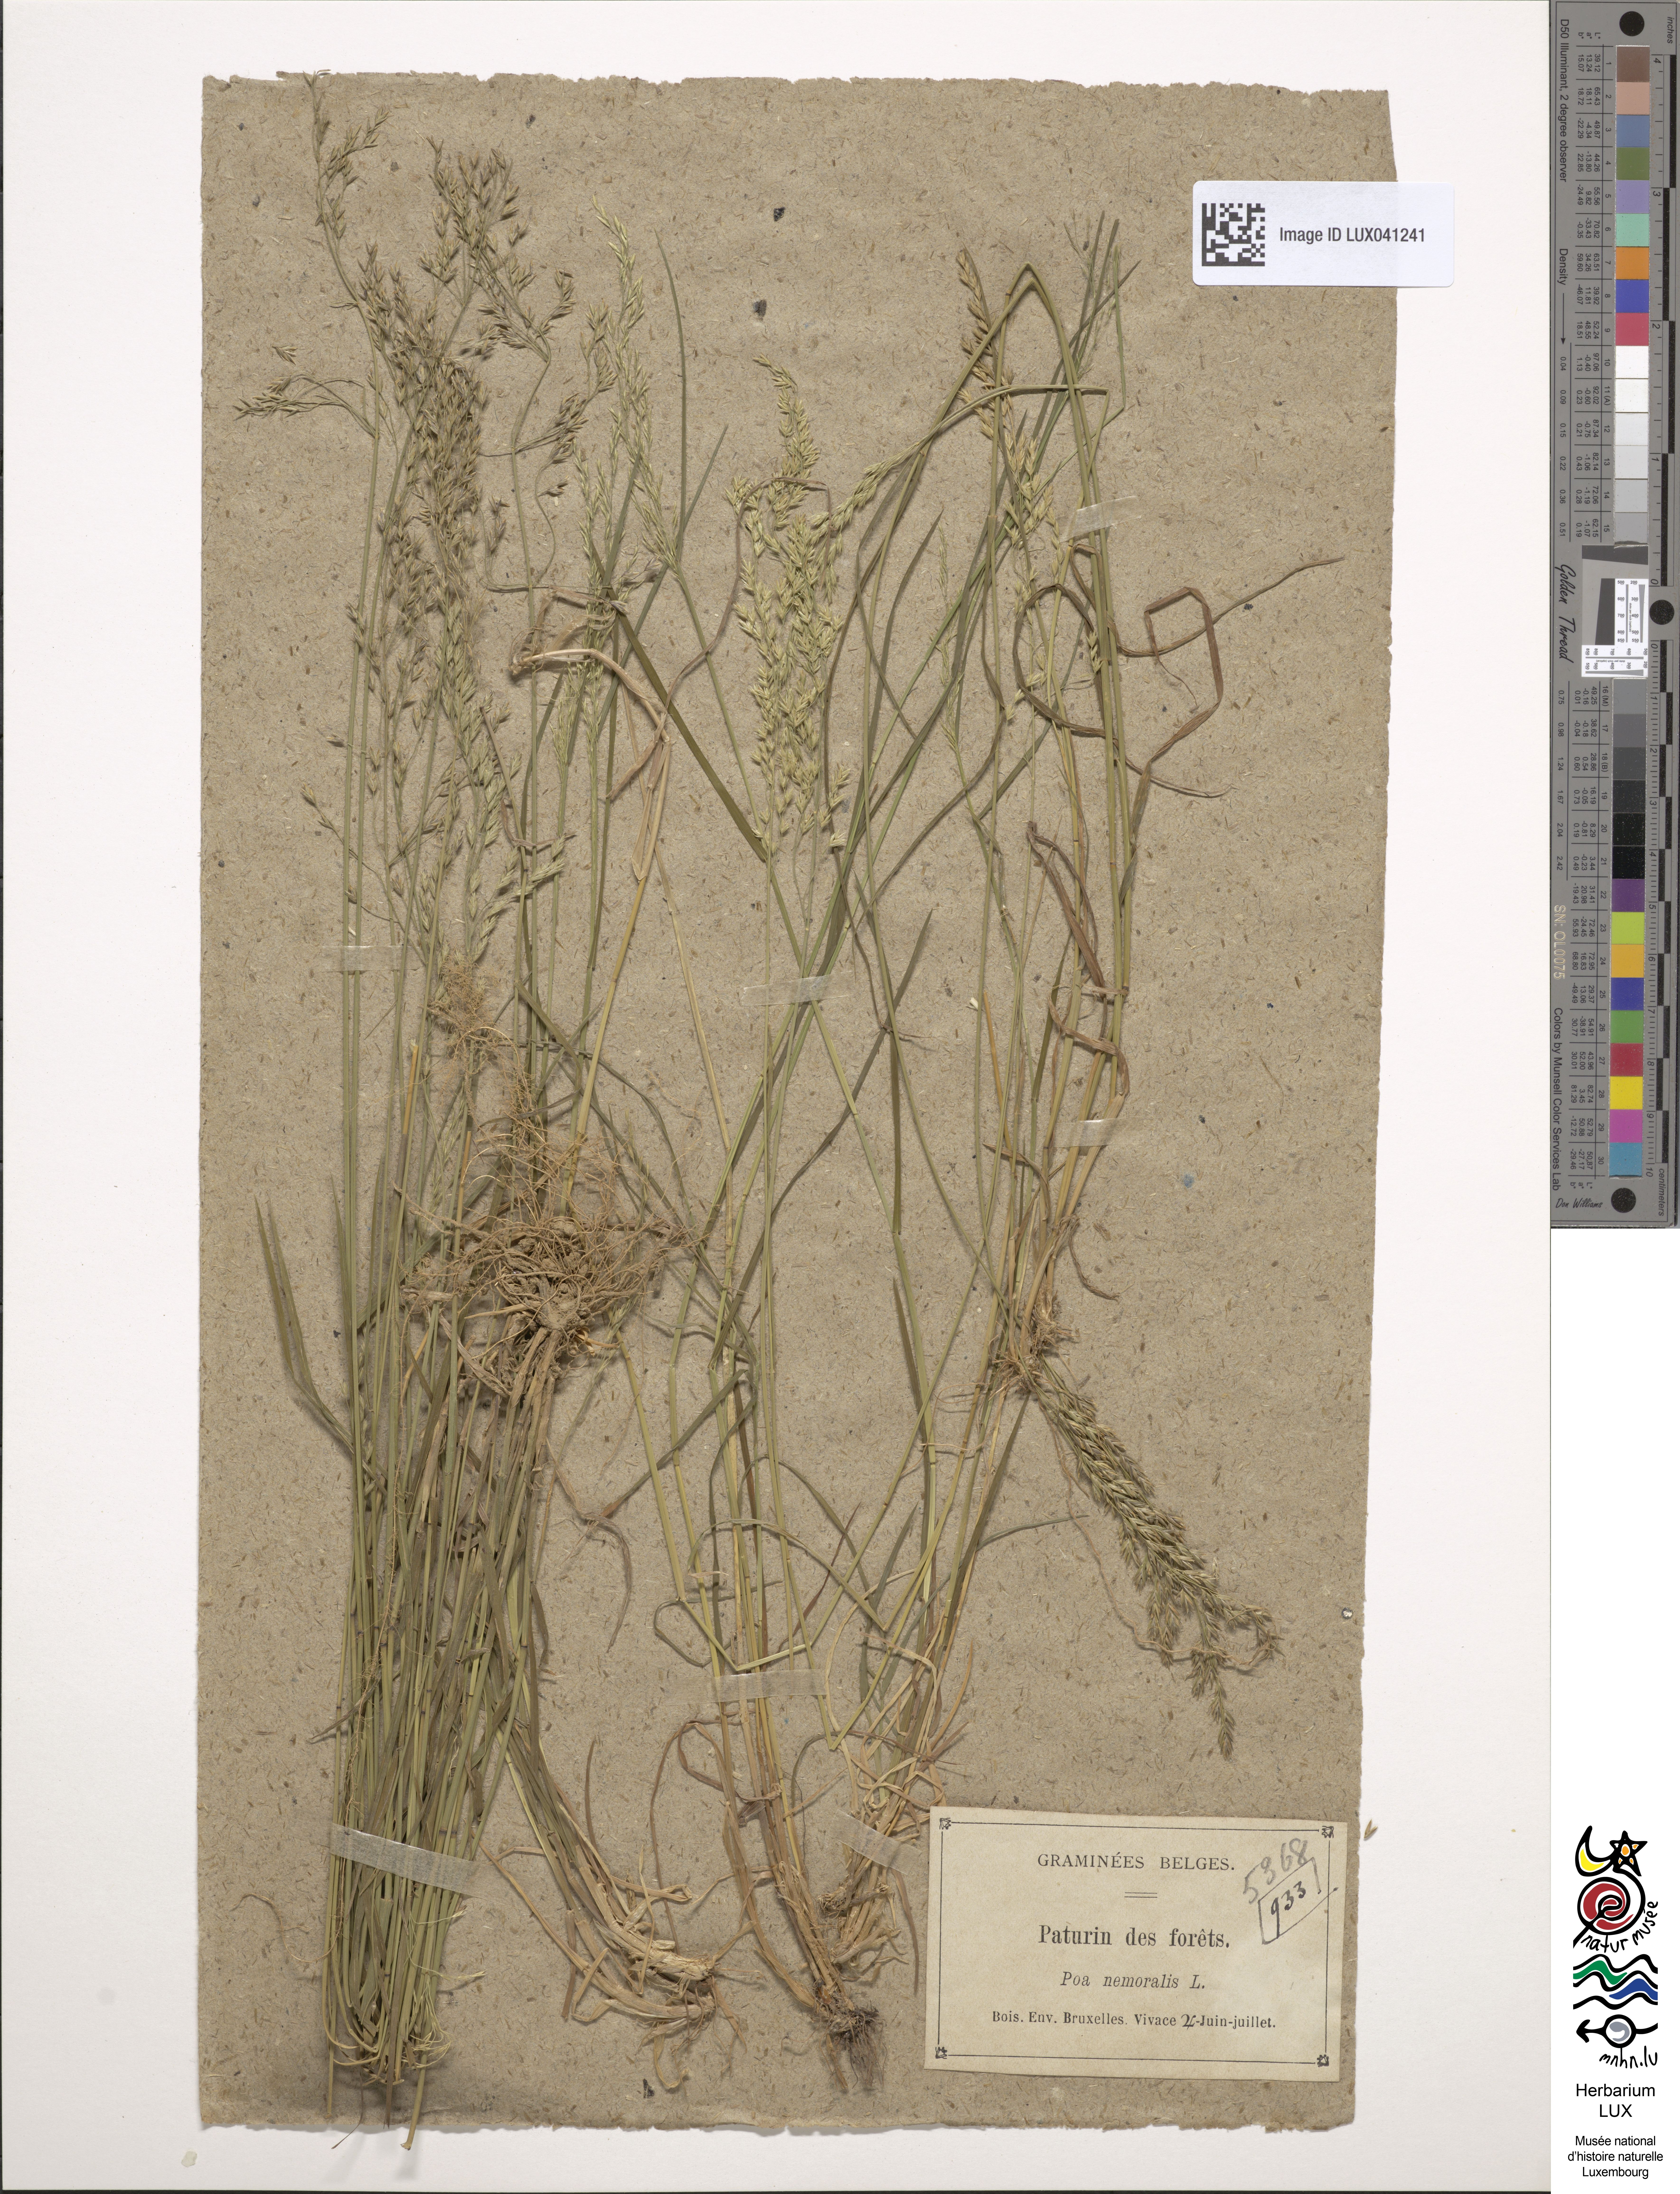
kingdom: Plantae
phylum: Tracheophyta
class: Liliopsida
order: Poales
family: Poaceae
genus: Poa
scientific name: Poa nemoralis
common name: Wood bluegrass
